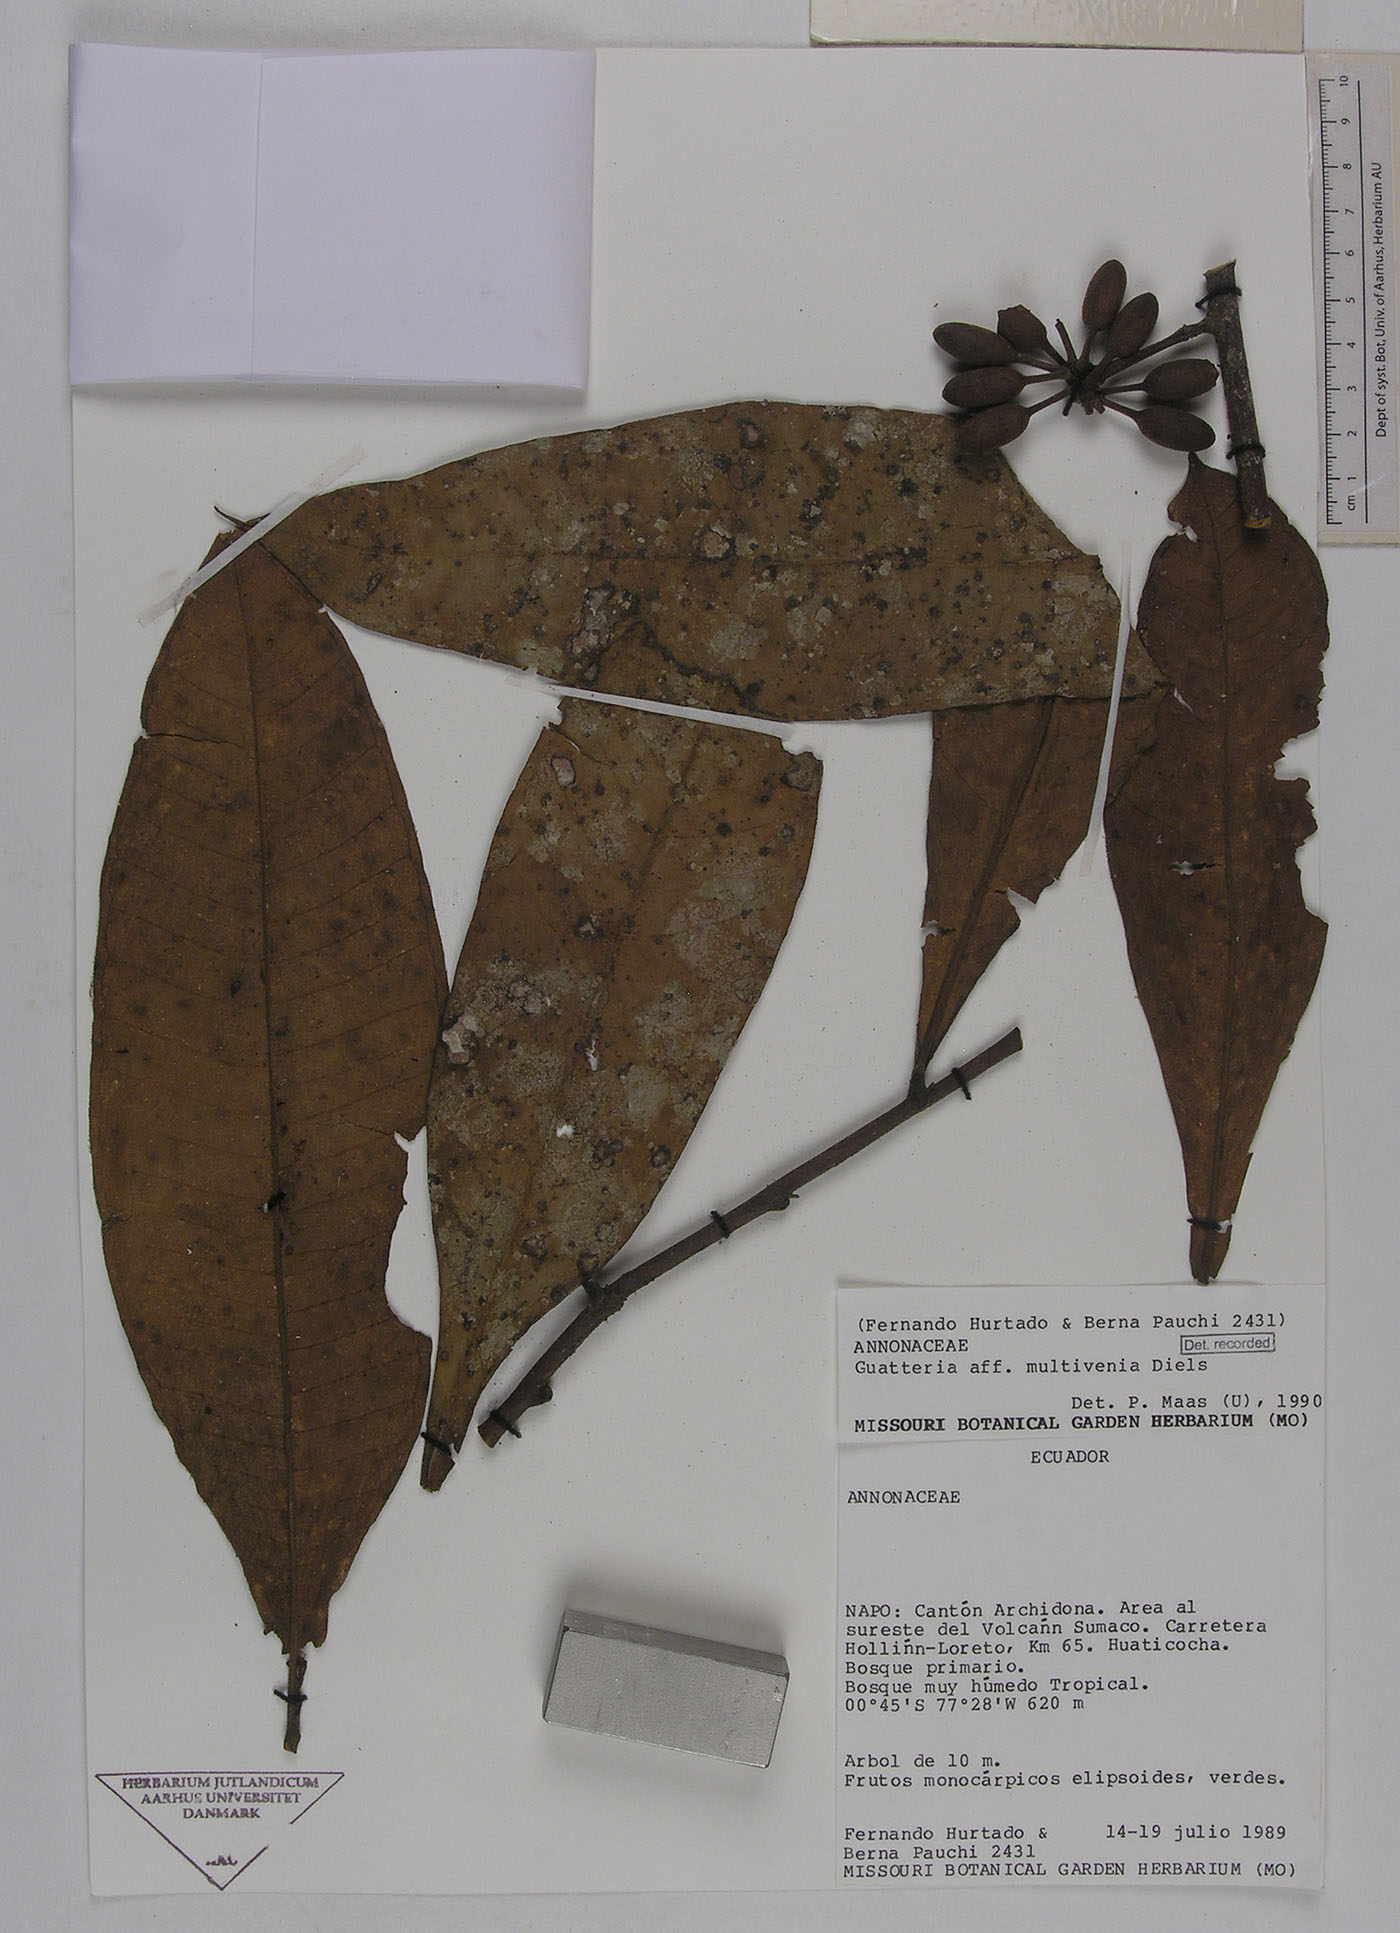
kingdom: Plantae
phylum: Tracheophyta
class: Magnoliopsida
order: Magnoliales
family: Annonaceae
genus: Guatteria
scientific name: Guatteria decurrens
